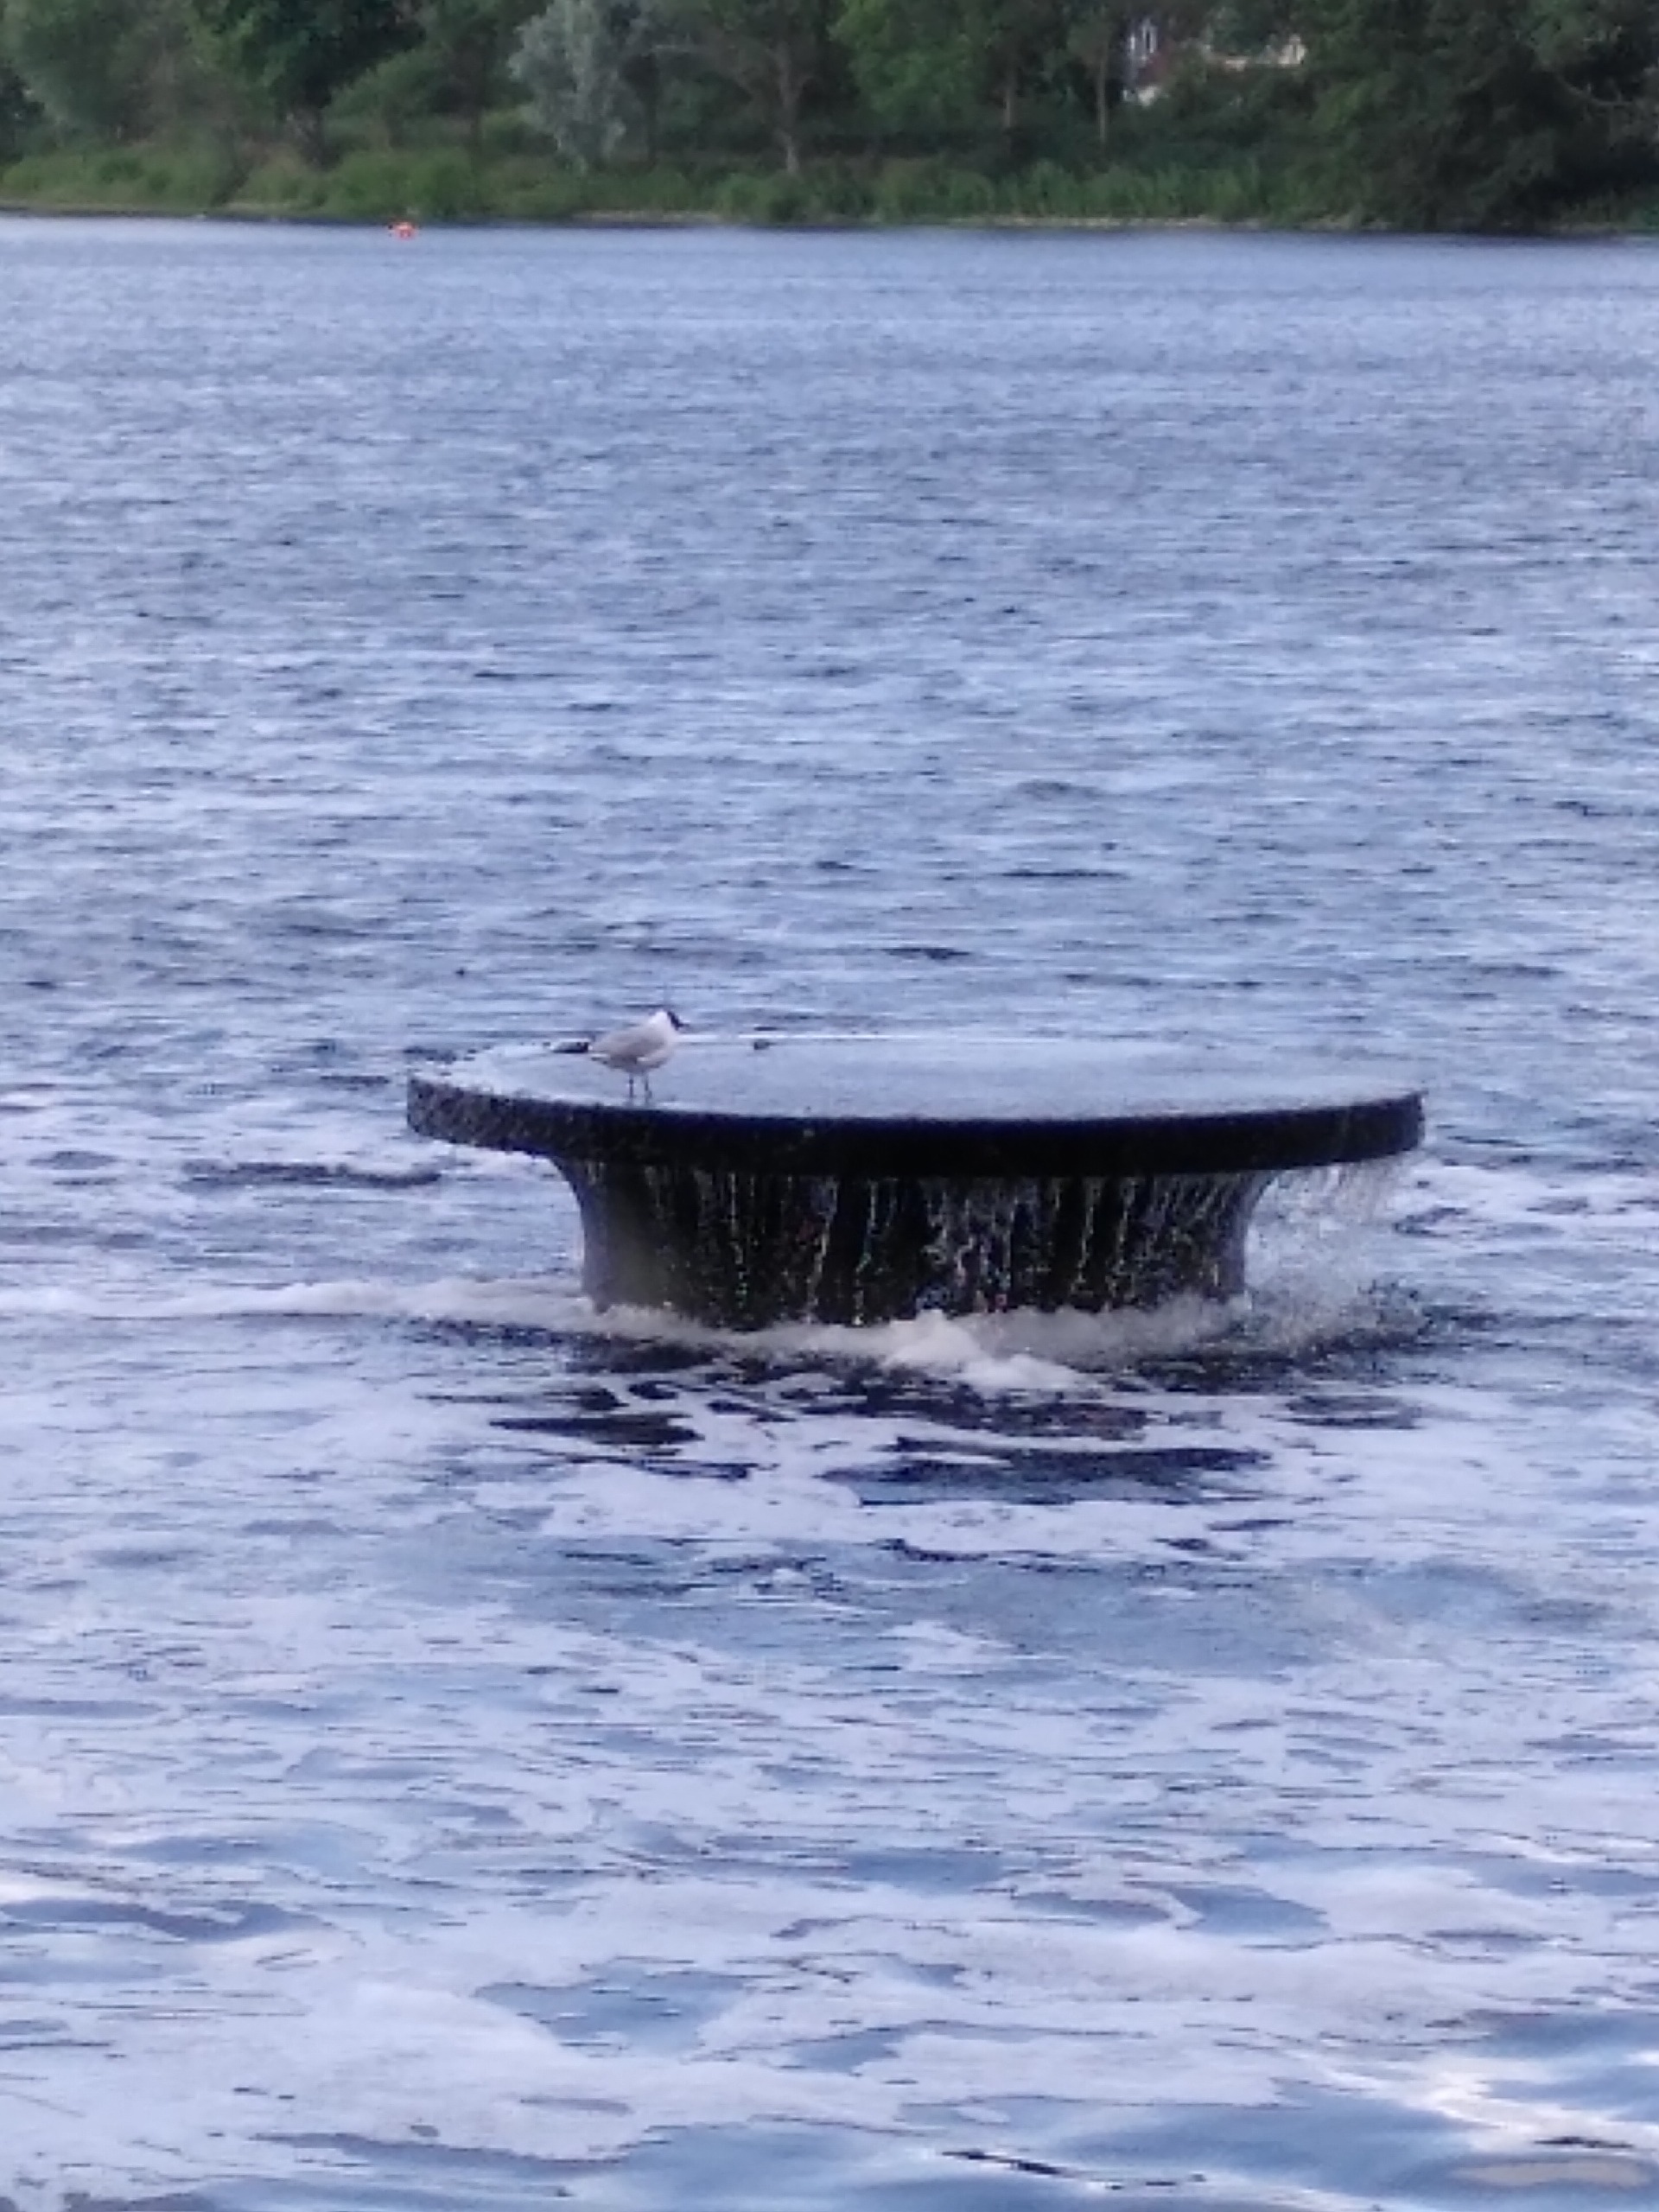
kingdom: Animalia
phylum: Chordata
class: Aves
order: Charadriiformes
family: Laridae
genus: Chroicocephalus
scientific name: Chroicocephalus ridibundus
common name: Hættemåge
